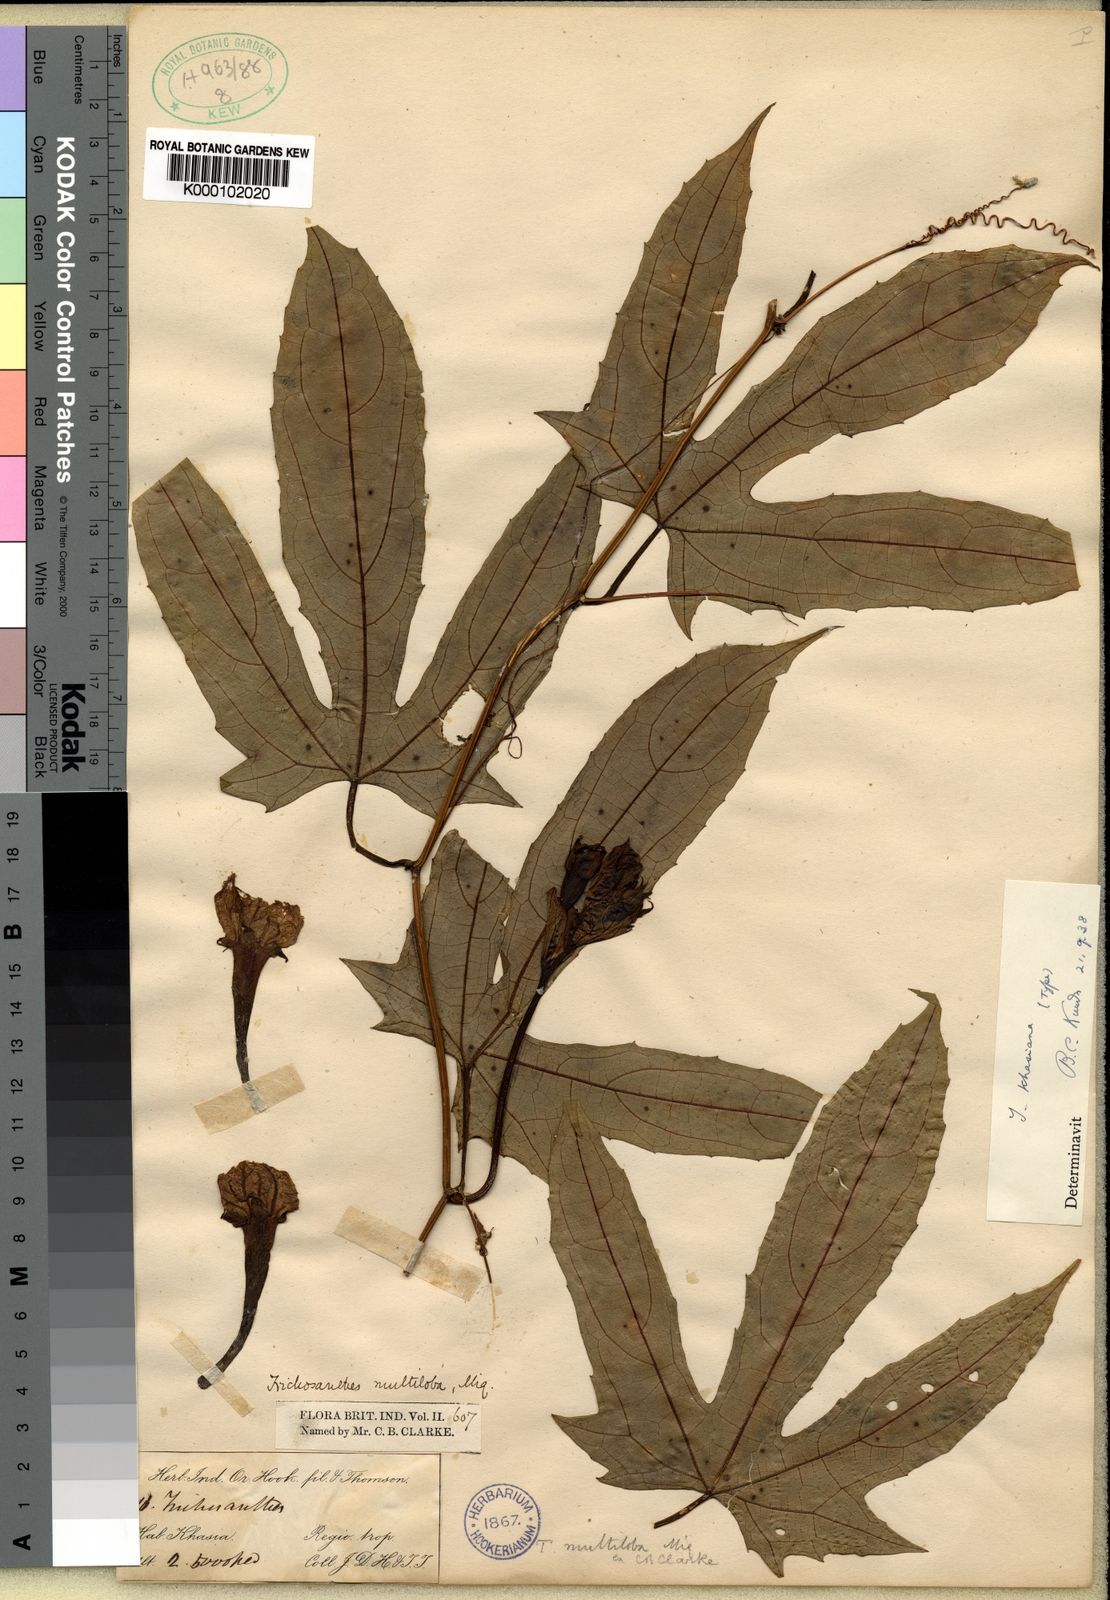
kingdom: Plantae
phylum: Tracheophyta
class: Magnoliopsida
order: Cucurbitales
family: Cucurbitaceae
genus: Trichosanthes
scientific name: Trichosanthes khasiana
